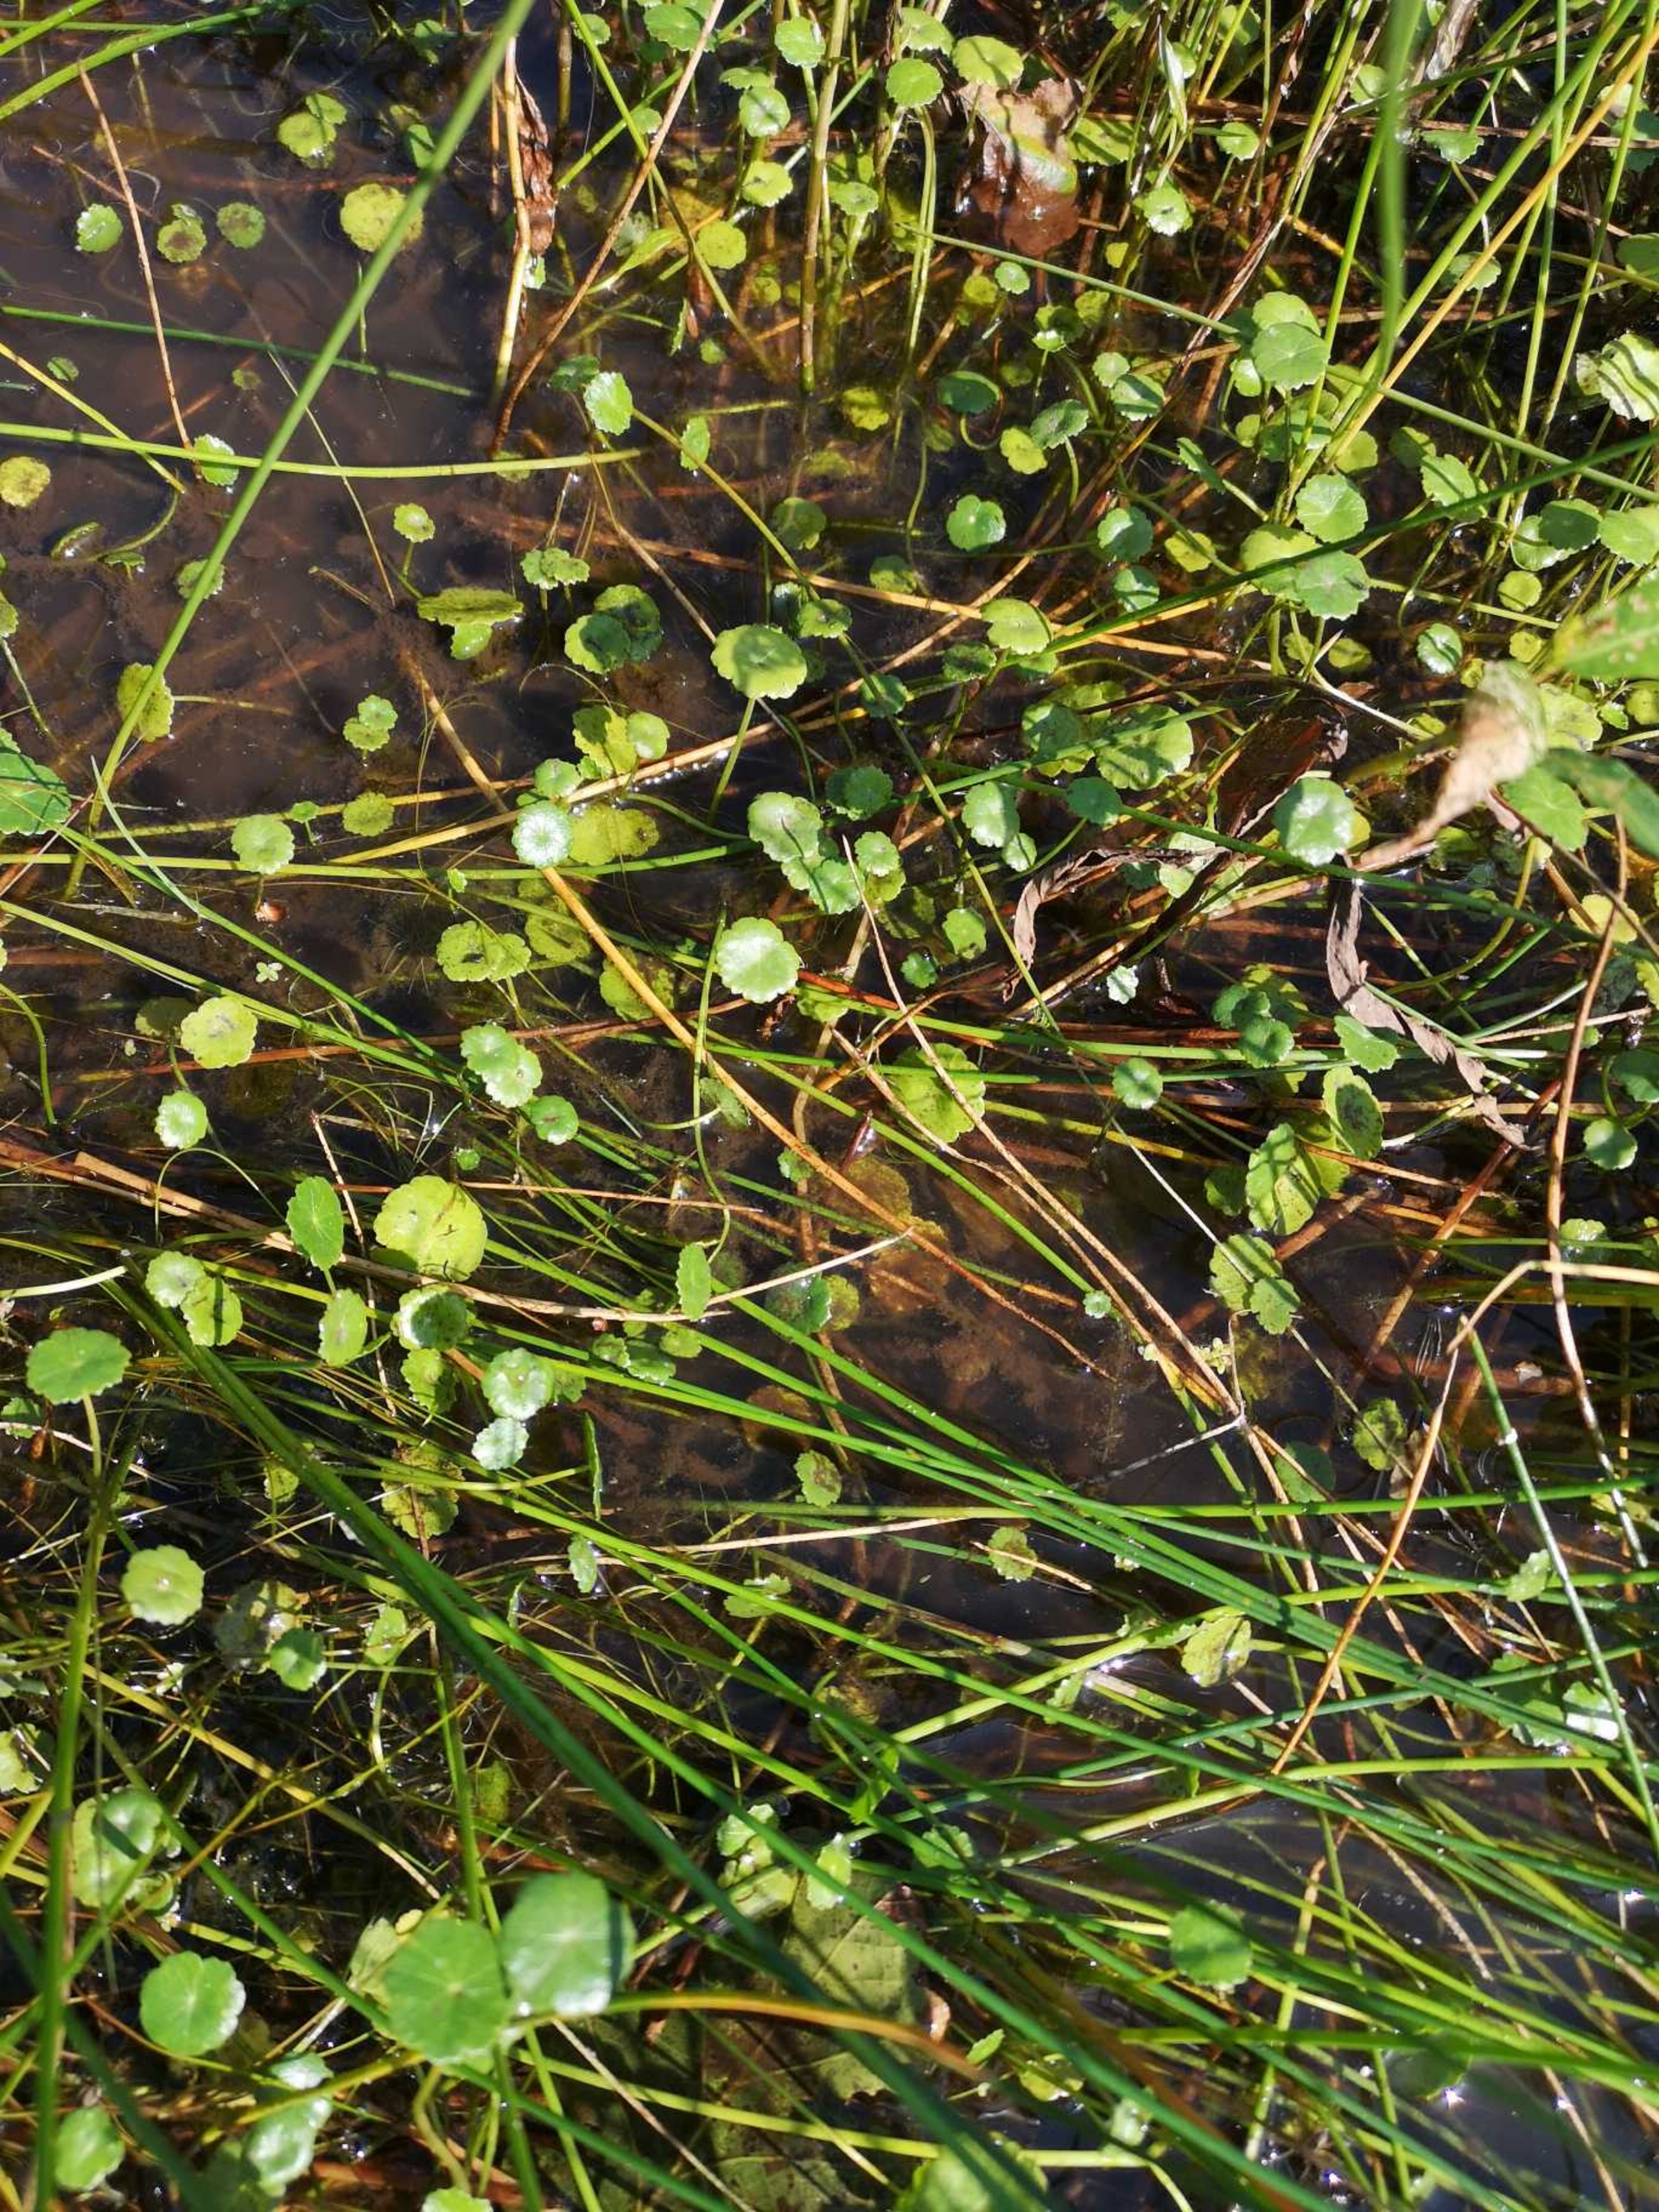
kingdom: Plantae
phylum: Tracheophyta
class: Magnoliopsida
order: Apiales
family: Araliaceae
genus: Hydrocotyle
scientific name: Hydrocotyle vulgaris
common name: Vandnavle
